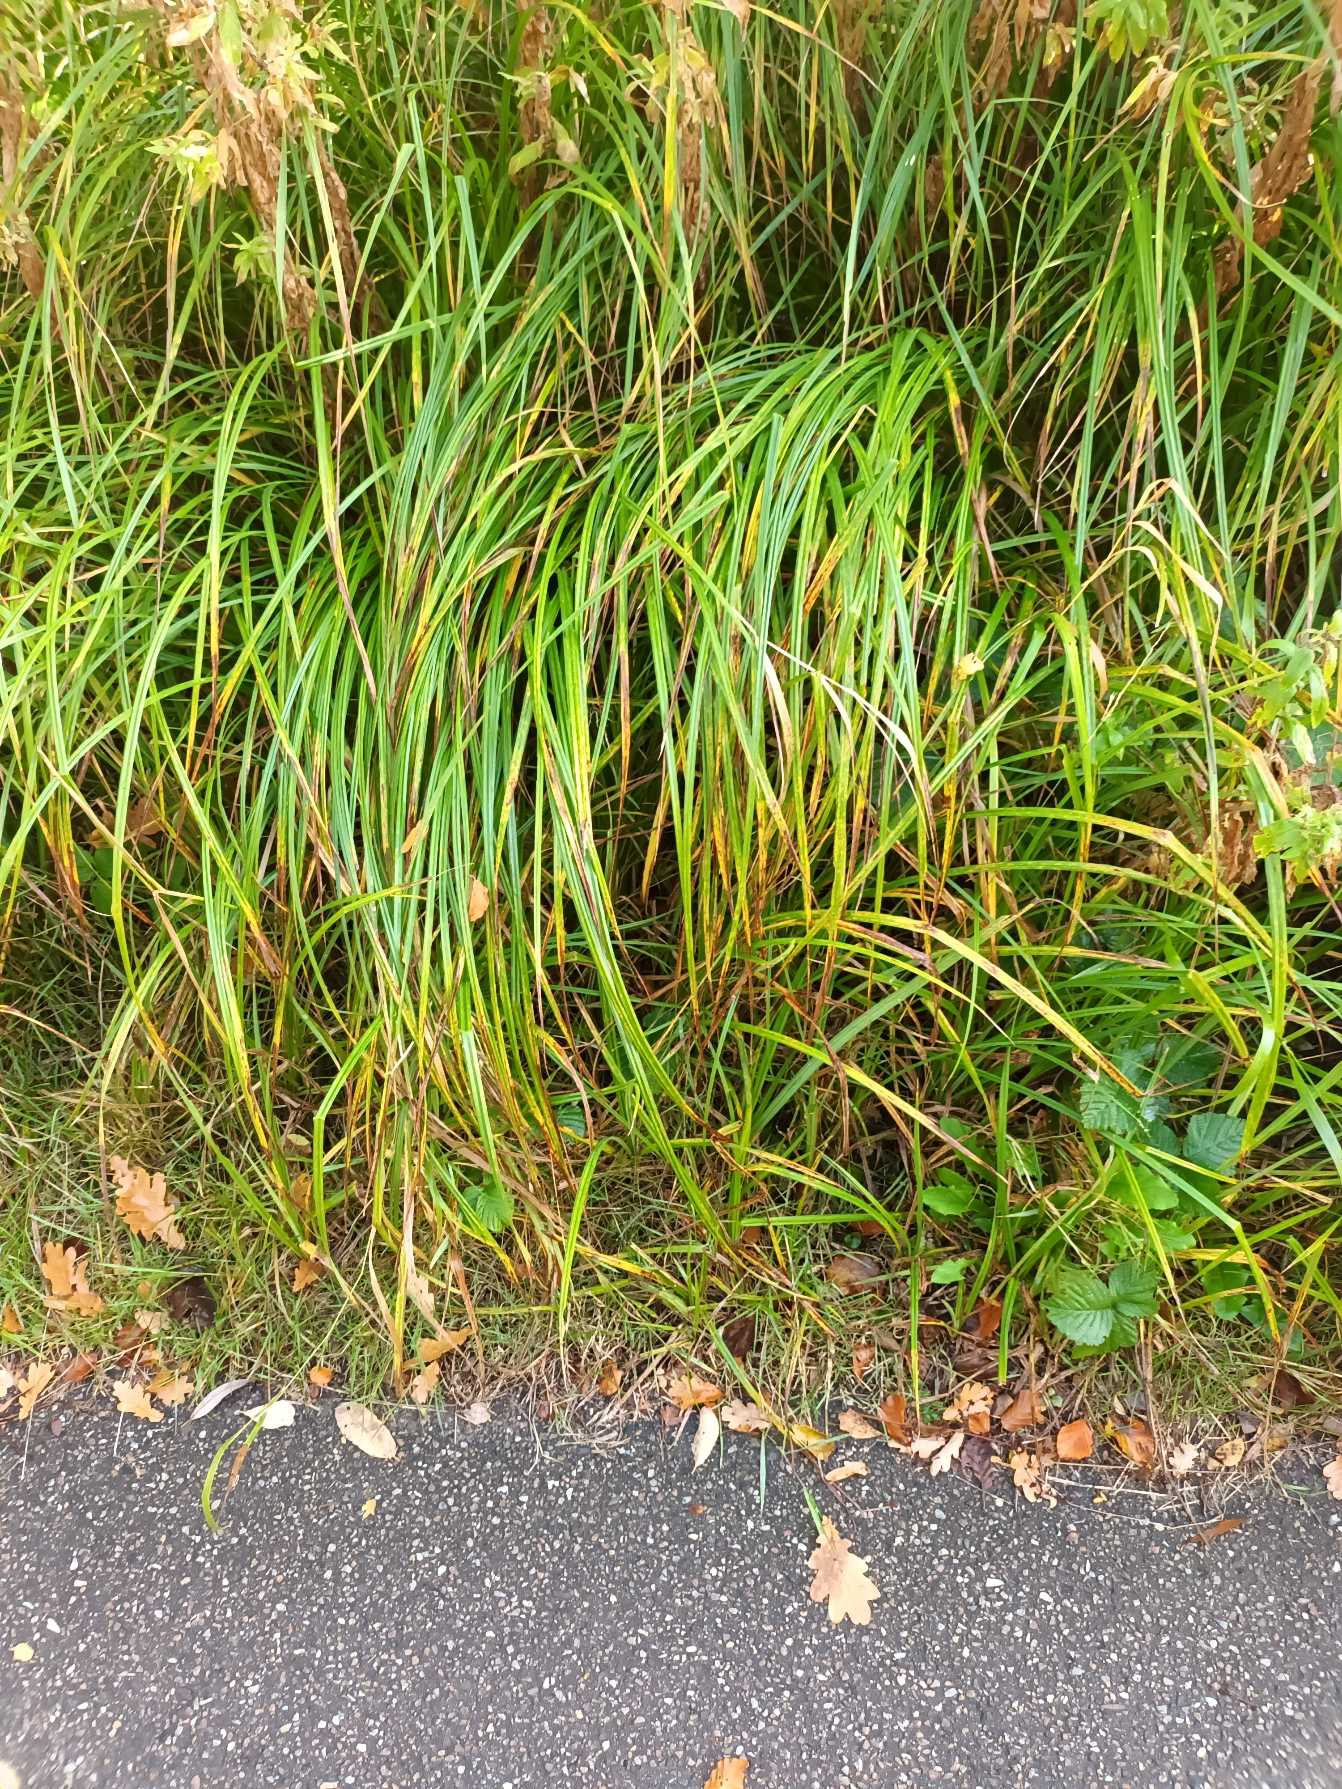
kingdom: Plantae
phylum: Tracheophyta
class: Liliopsida
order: Poales
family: Cyperaceae
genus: Carex
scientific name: Carex acutiformis
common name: Kær-star
